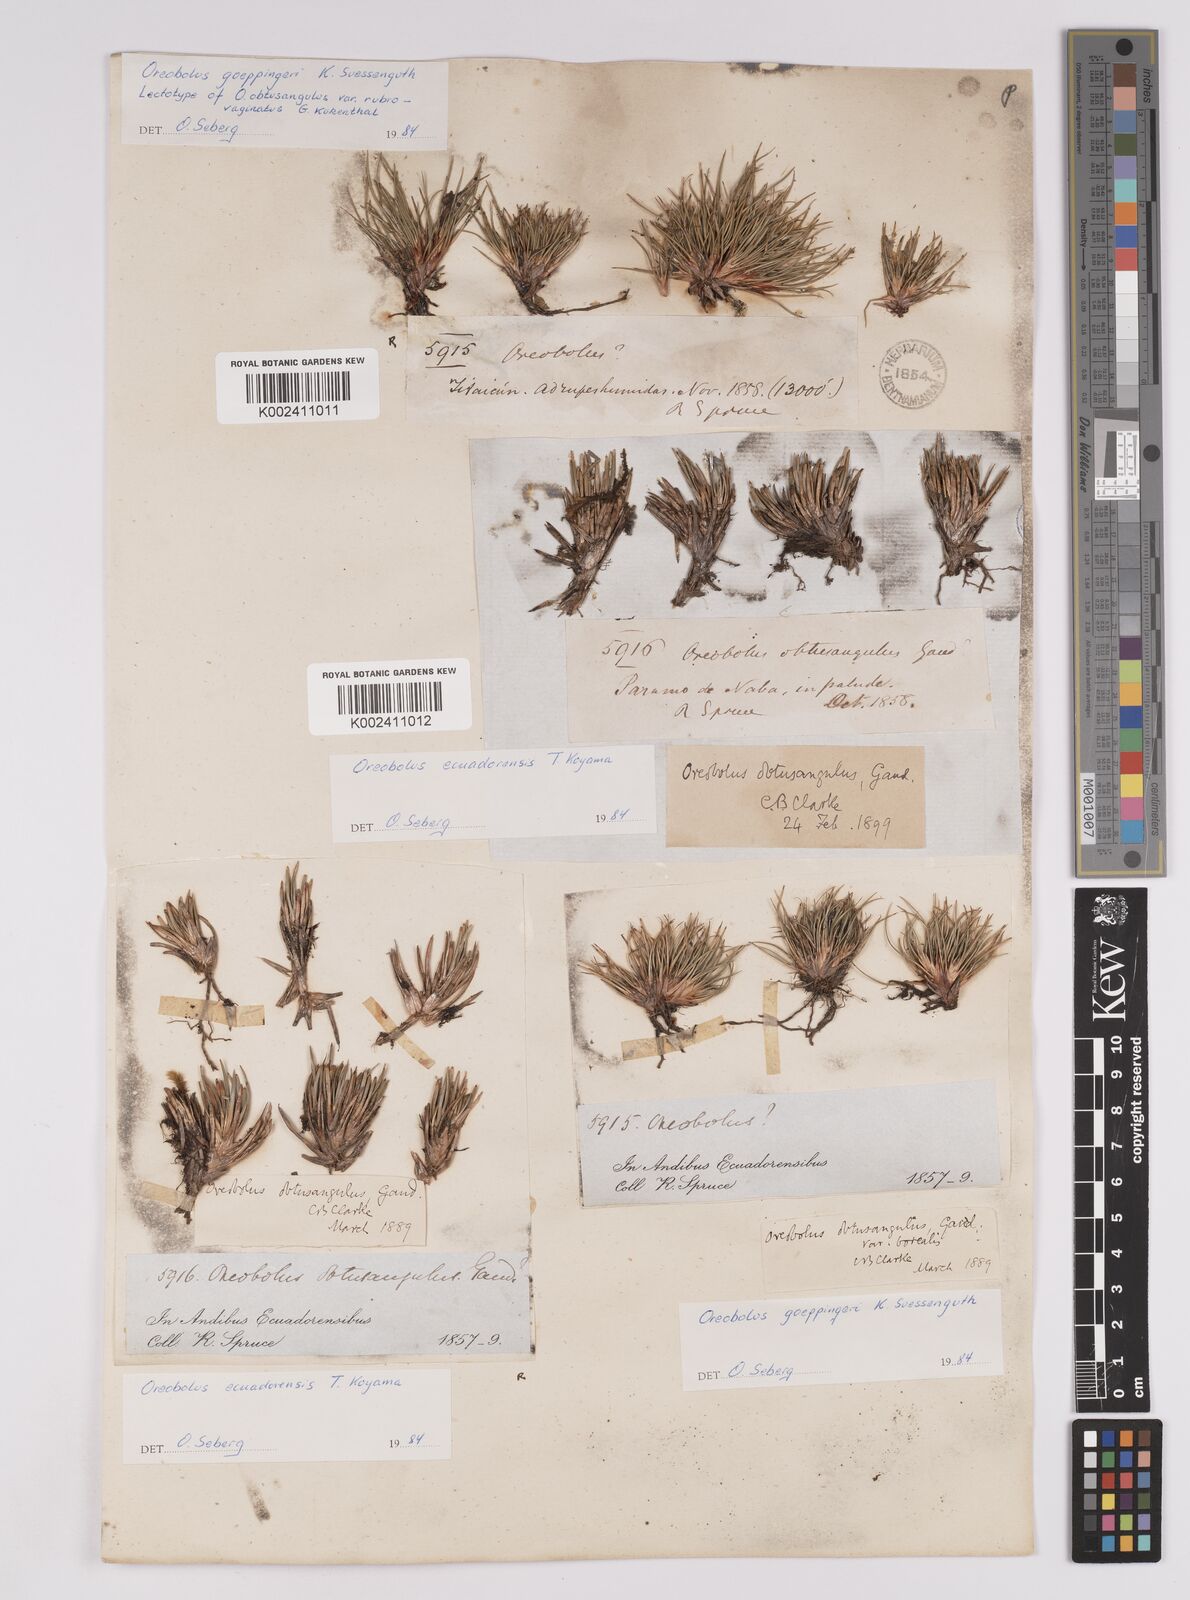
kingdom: Plantae
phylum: Tracheophyta
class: Liliopsida
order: Poales
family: Cyperaceae
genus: Oreobolus
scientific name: Oreobolus obtusangulus
